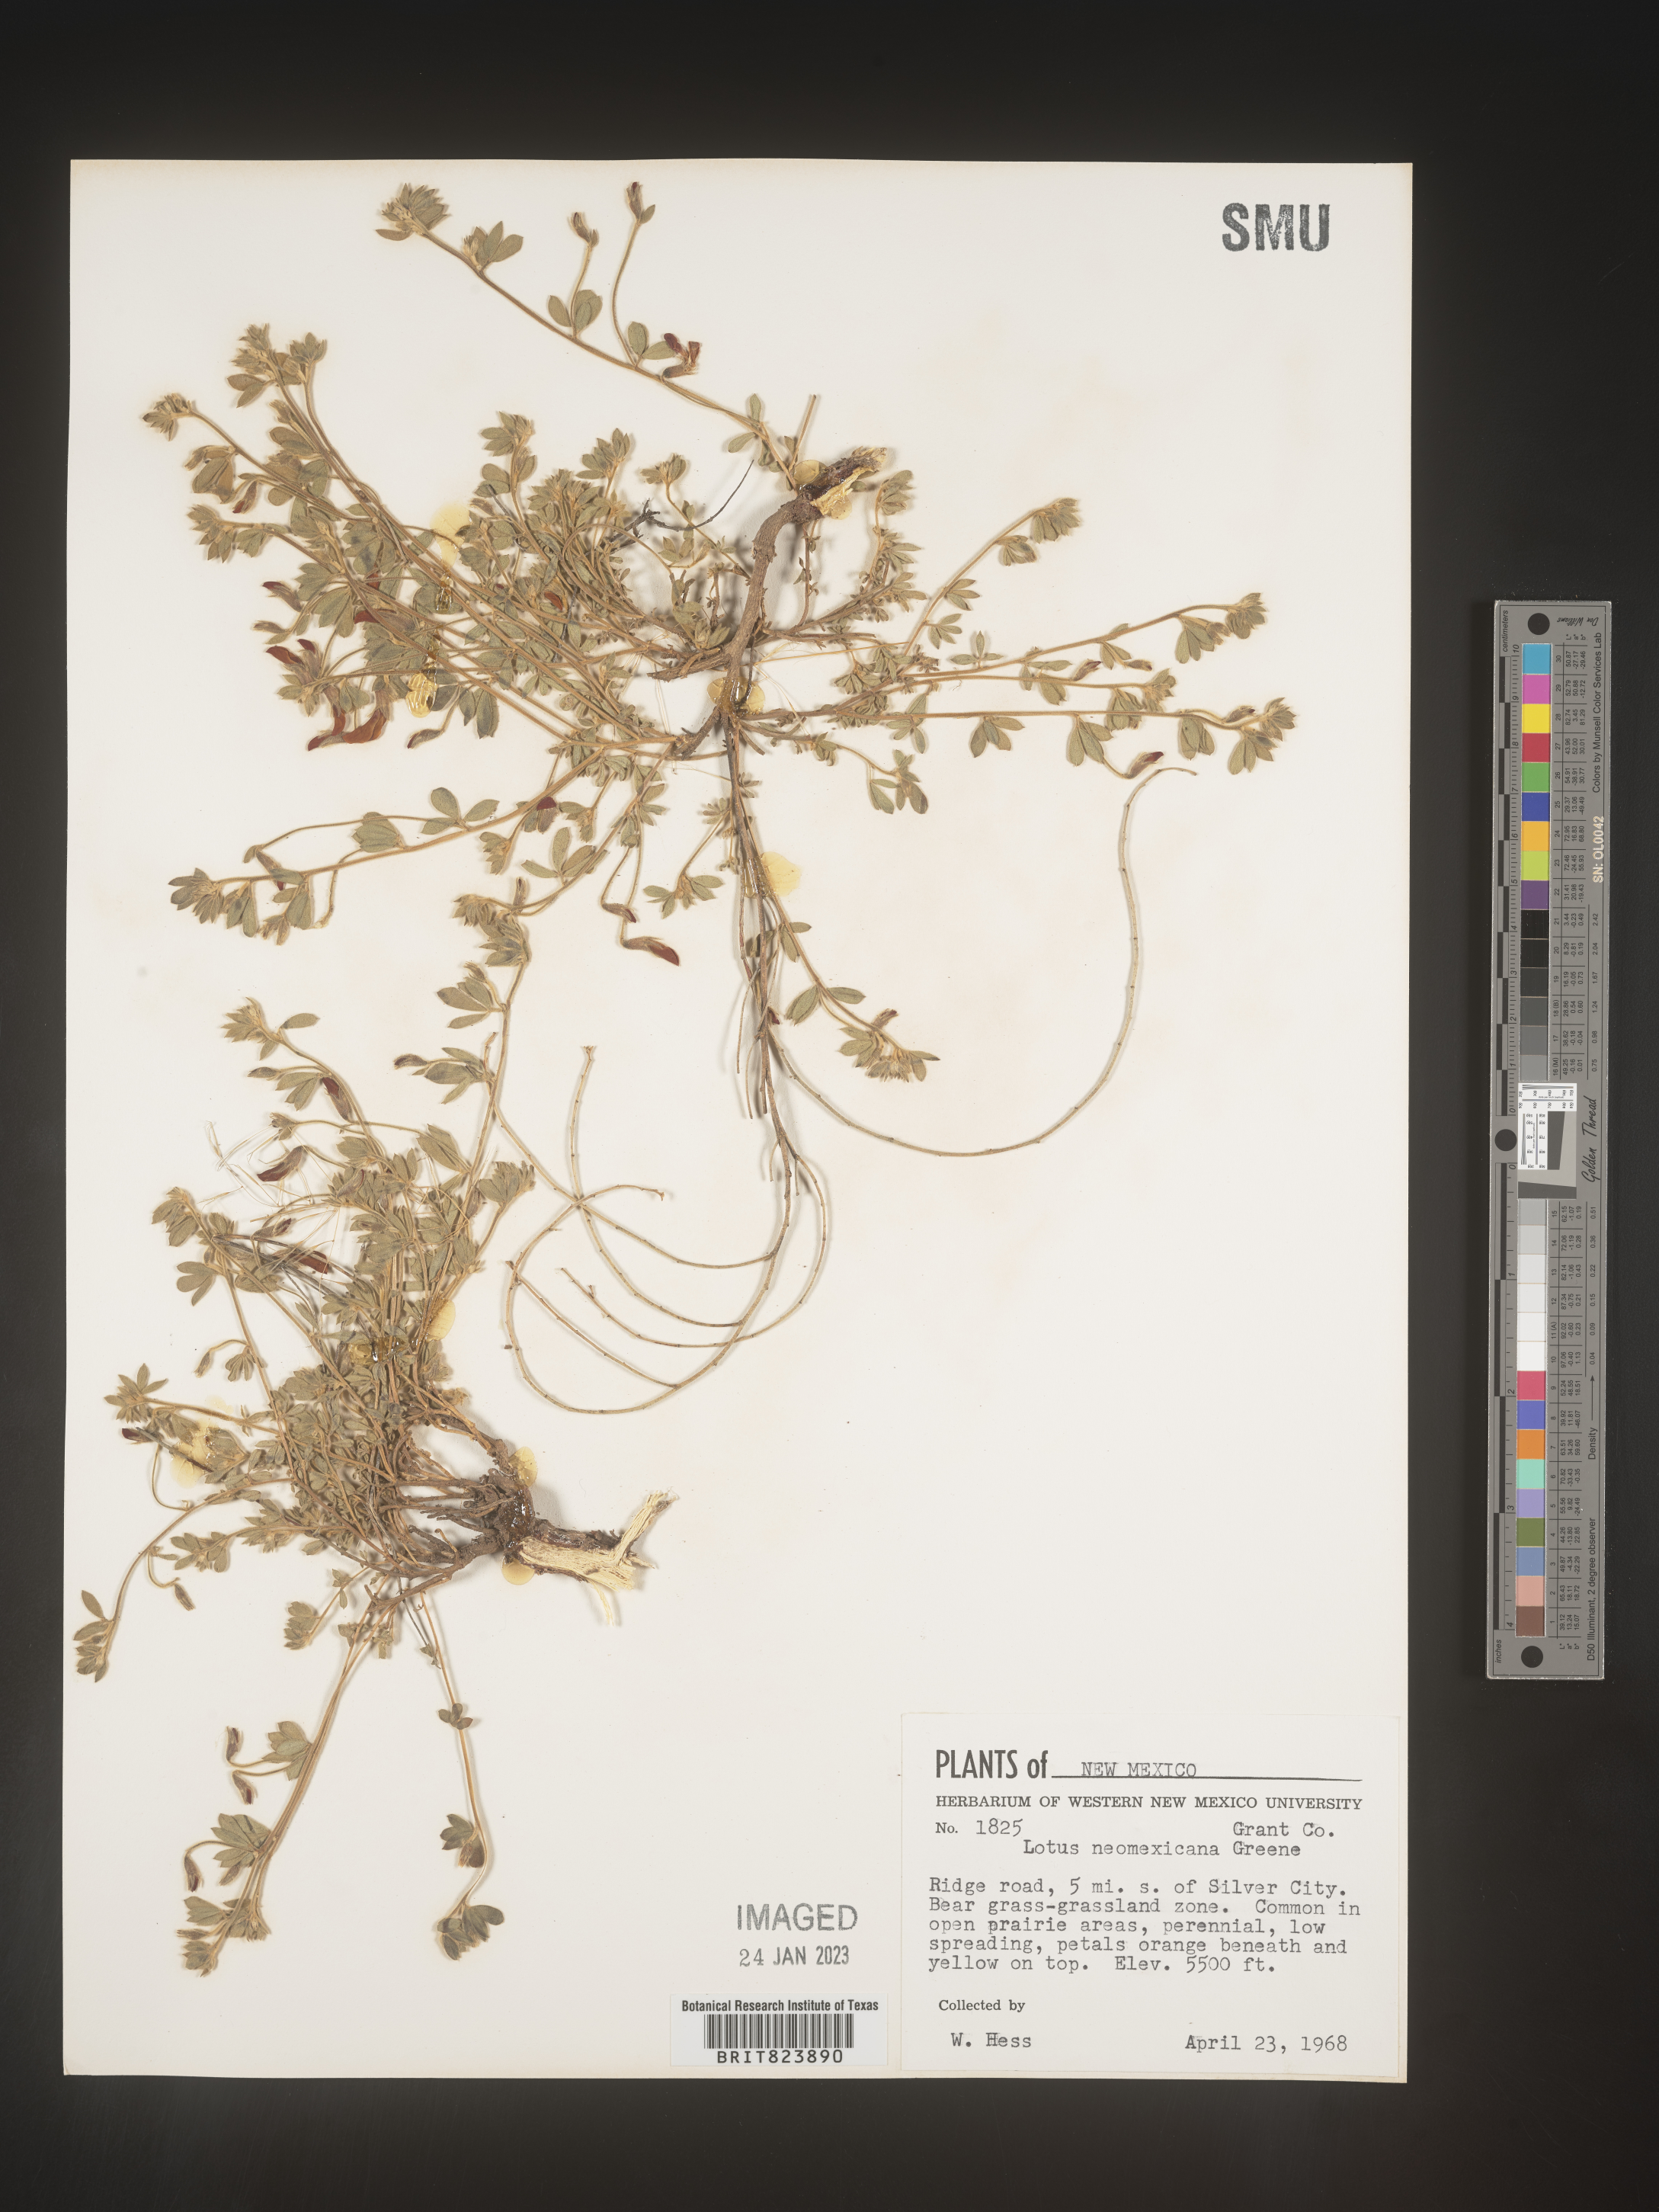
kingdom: Plantae
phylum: Tracheophyta
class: Magnoliopsida
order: Fabales
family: Fabaceae
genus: Lotus
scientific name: Lotus
